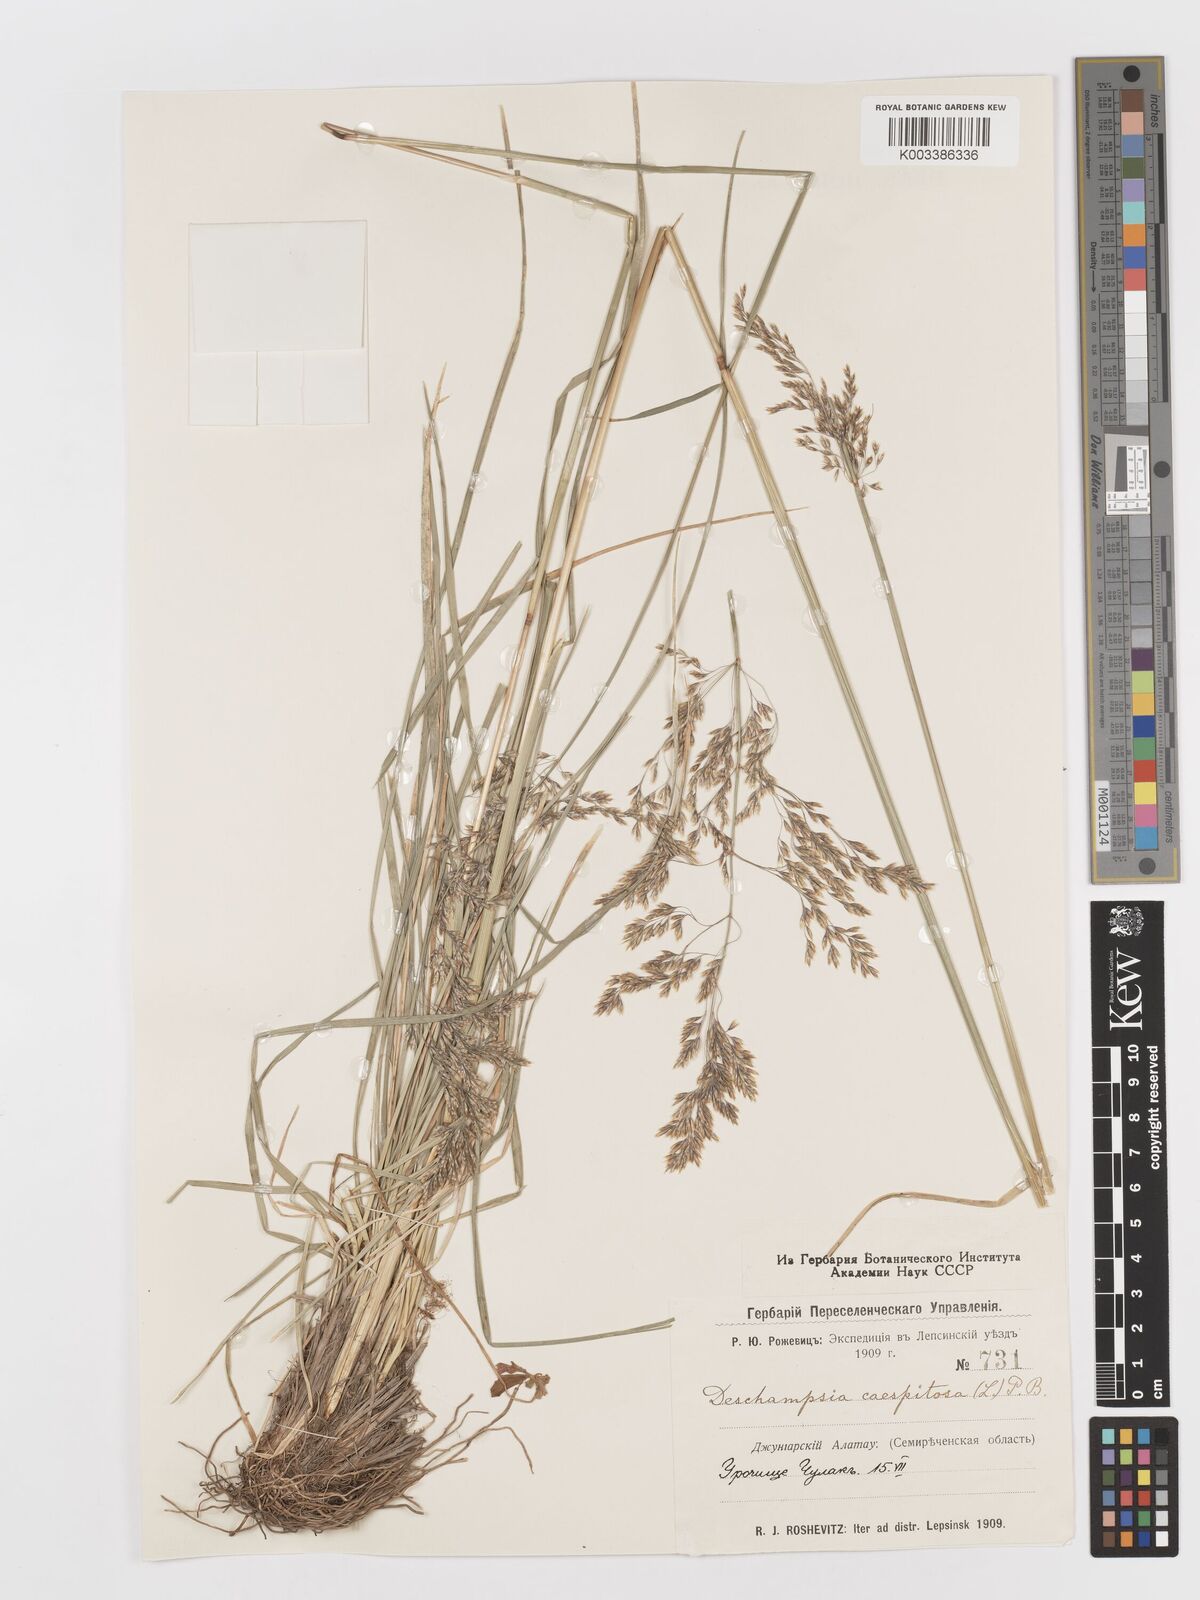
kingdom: Plantae
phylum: Tracheophyta
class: Liliopsida
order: Poales
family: Poaceae
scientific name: Poaceae
